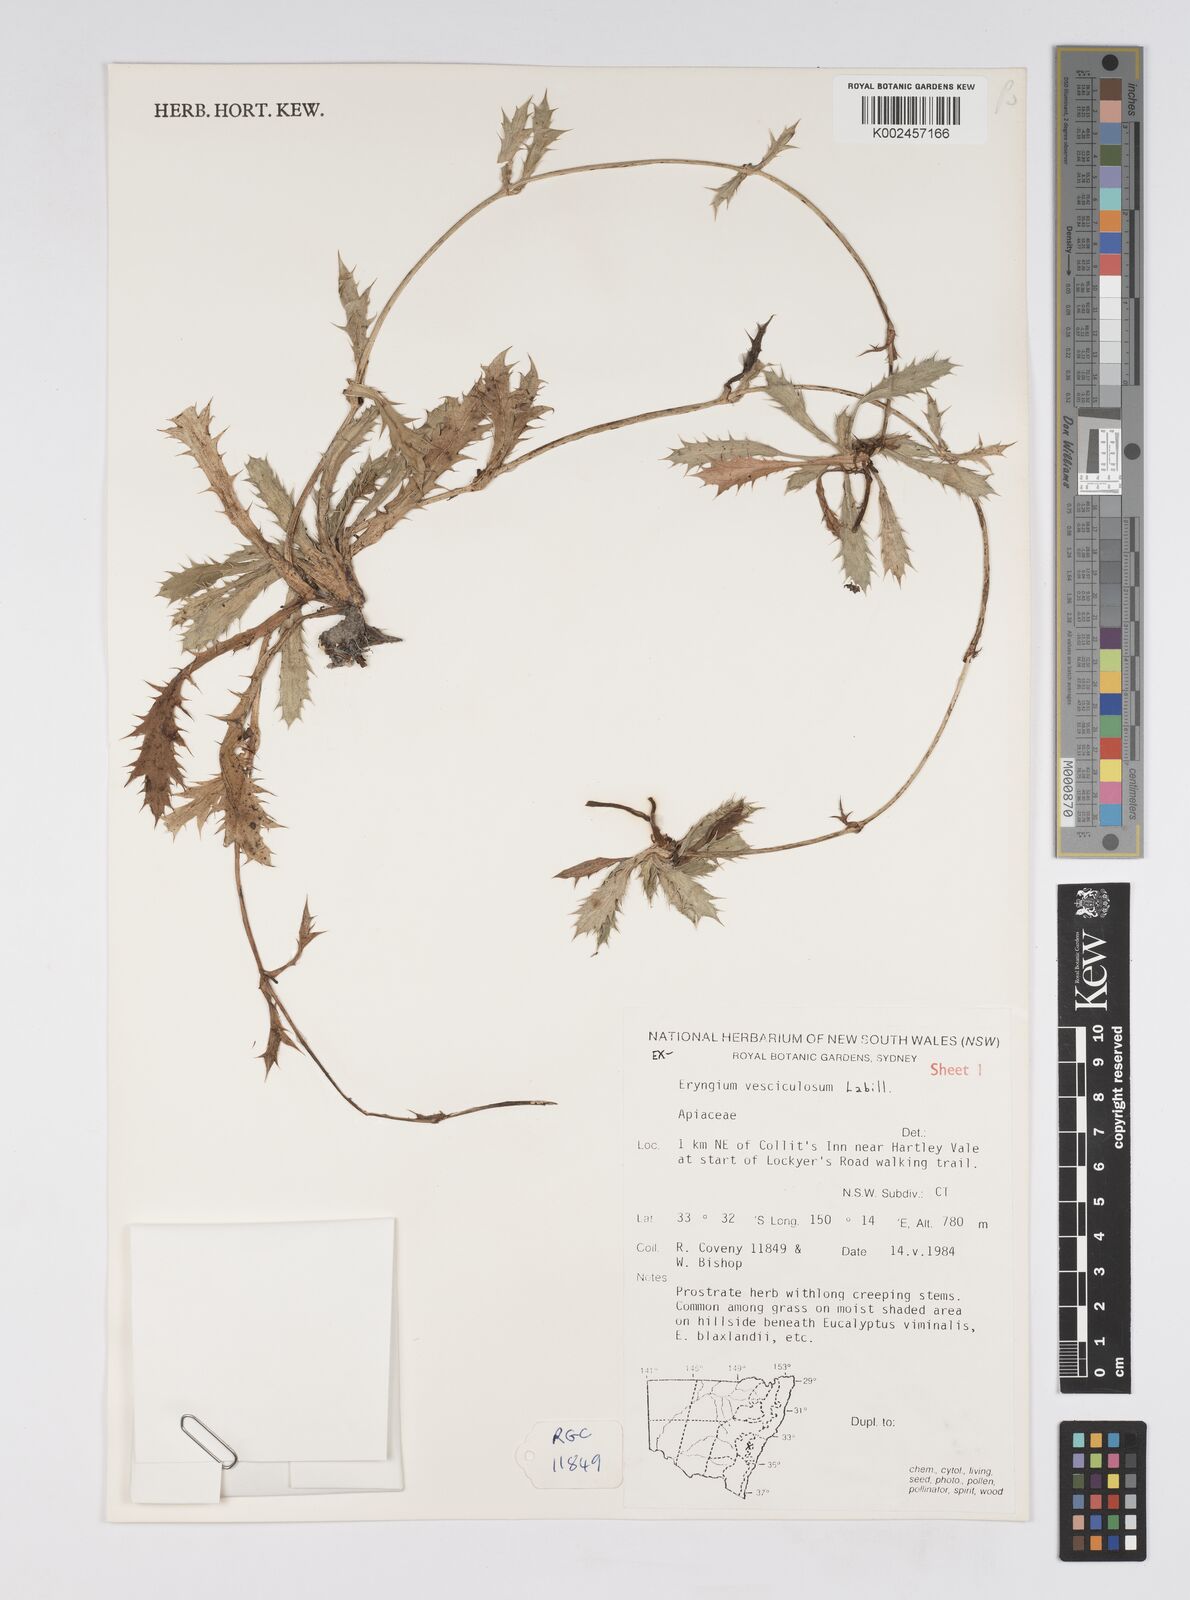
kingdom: Plantae
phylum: Tracheophyta
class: Magnoliopsida
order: Apiales
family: Apiaceae
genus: Eryngium
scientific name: Eryngium vesiculosum
